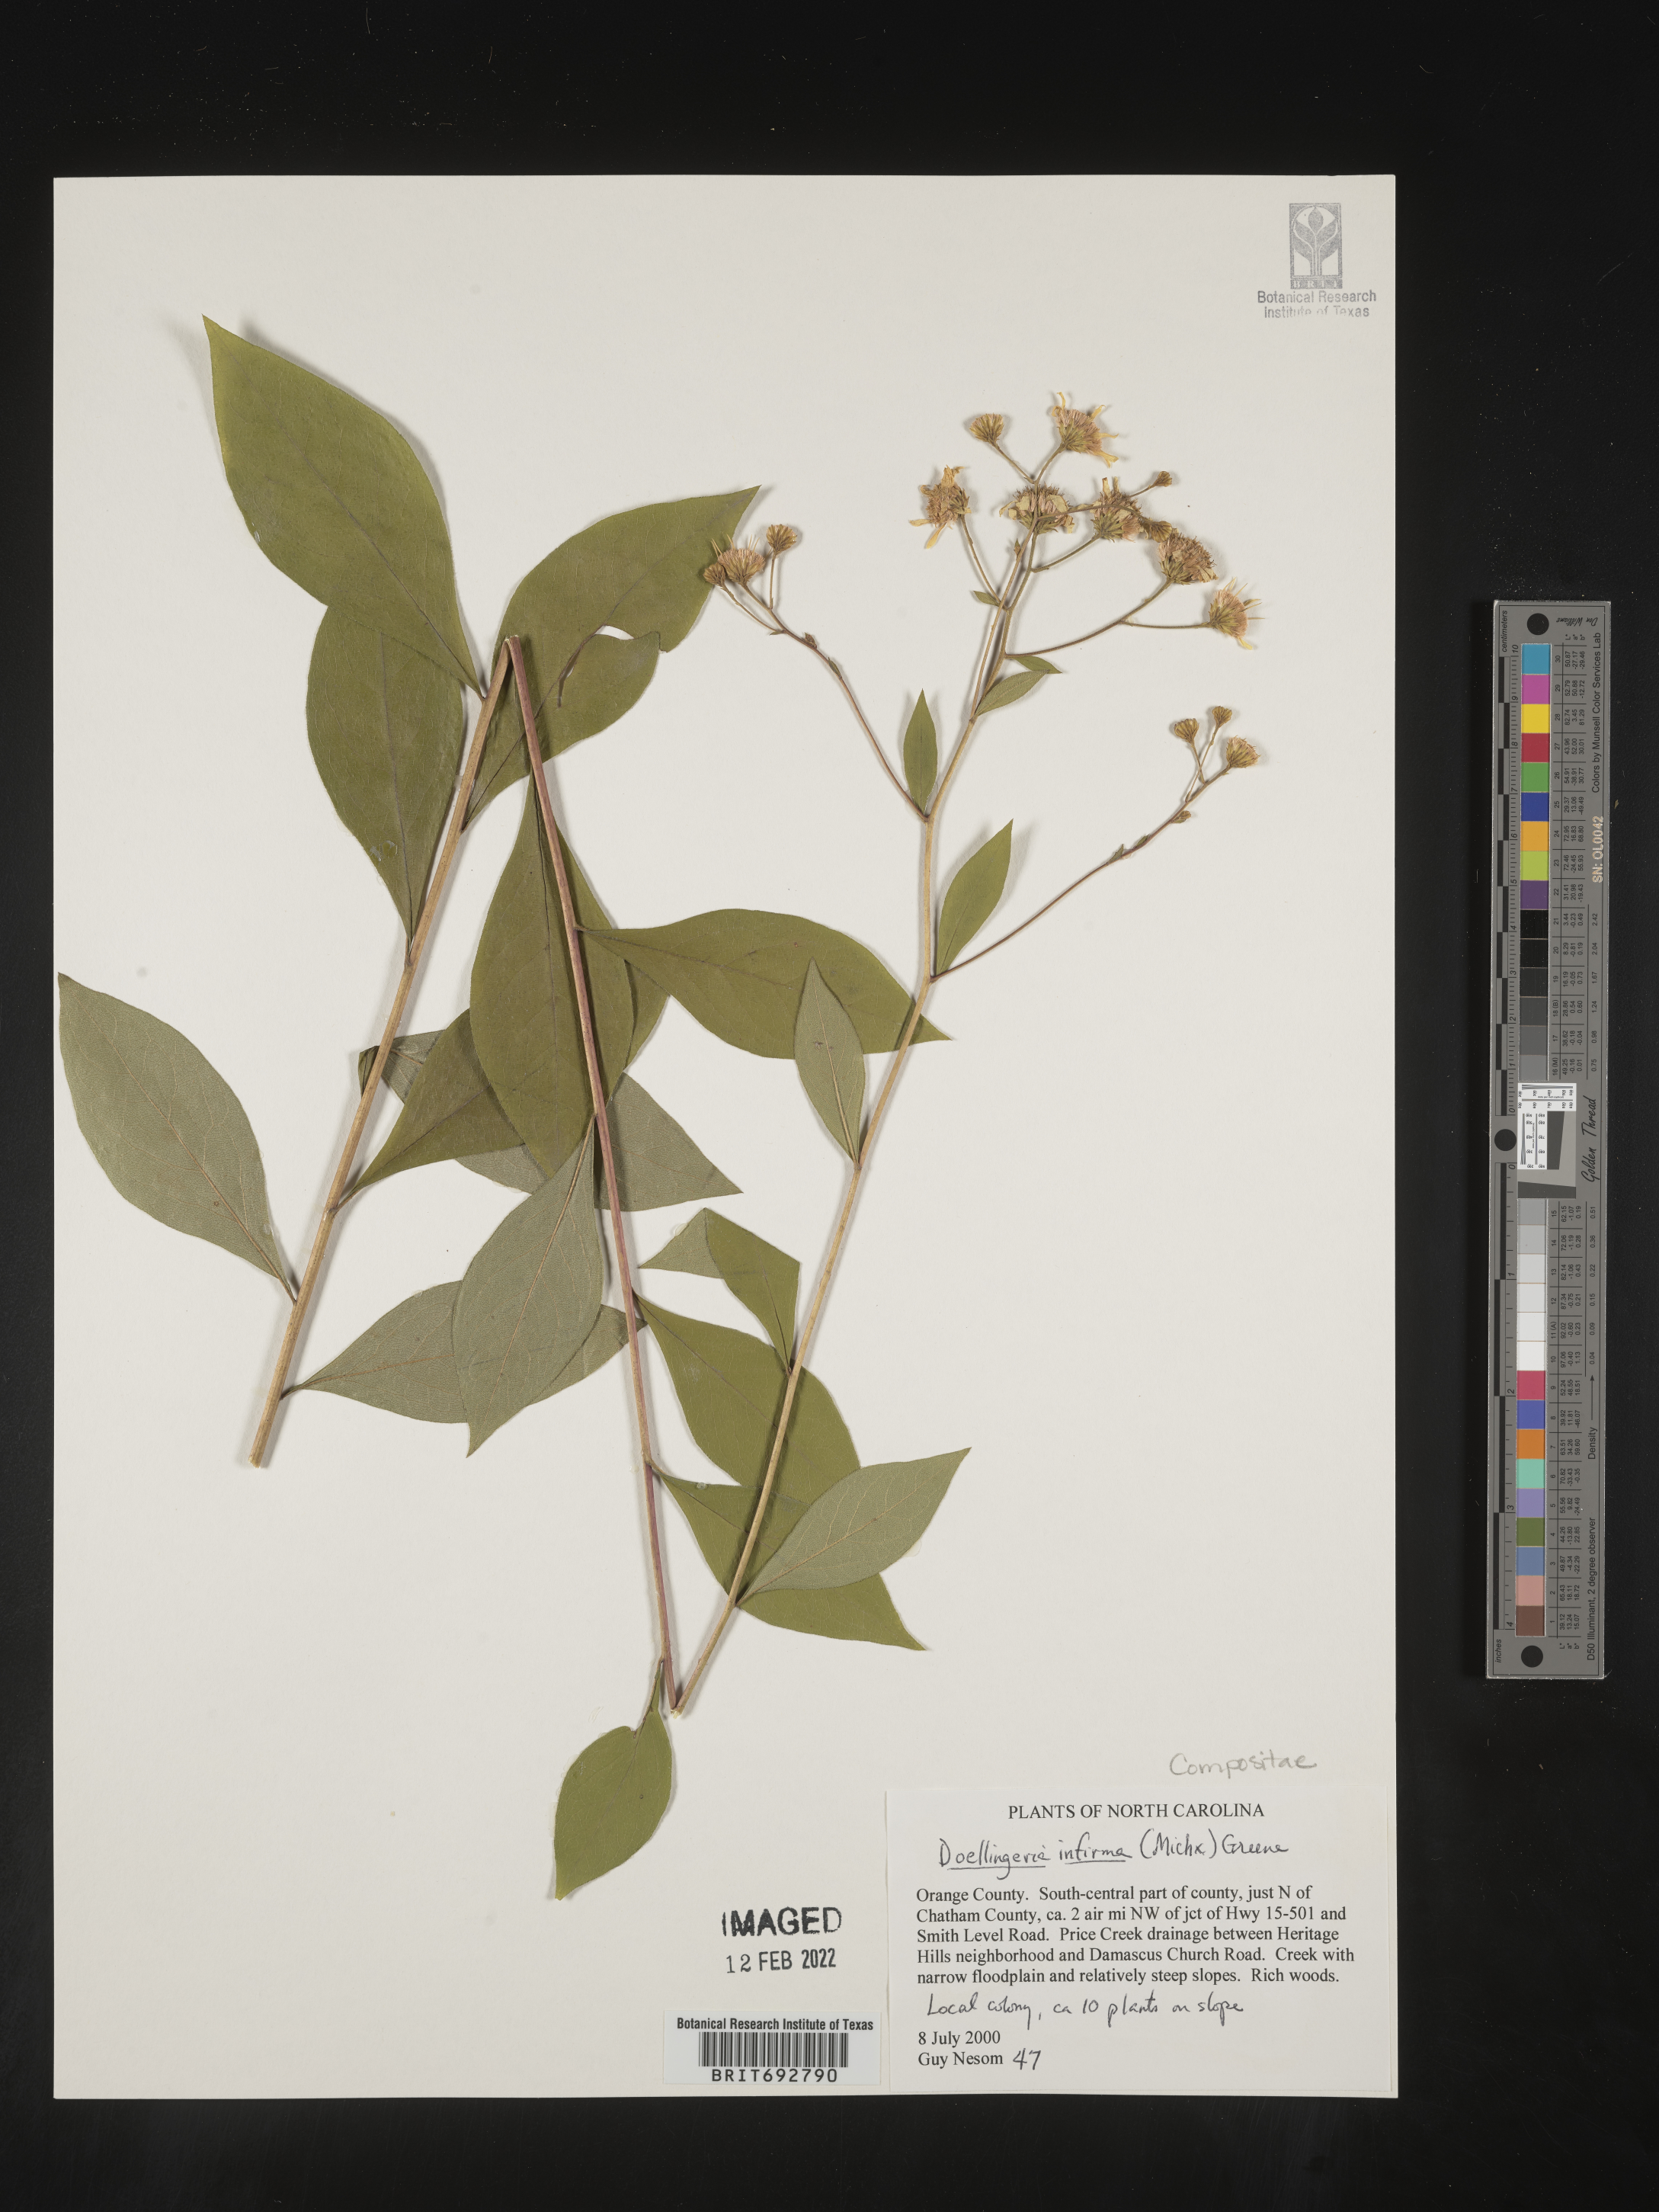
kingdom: Plantae
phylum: Tracheophyta
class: Magnoliopsida
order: Asterales
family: Asteraceae
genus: Doellingeria
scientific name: Doellingeria infirma
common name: Appalachian flat-top aster
